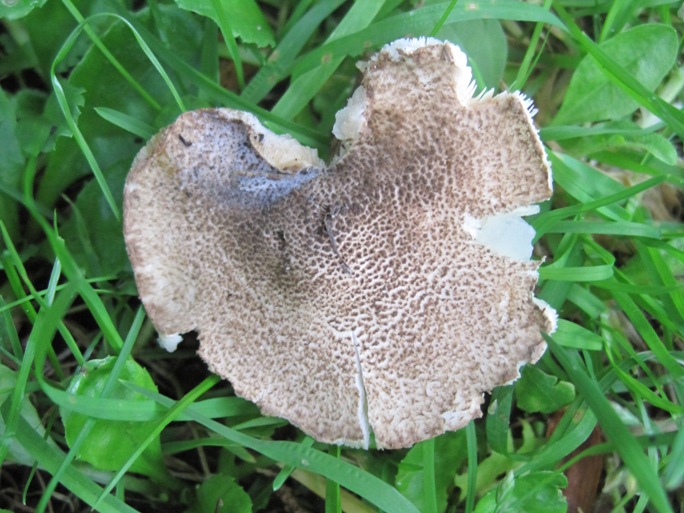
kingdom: Fungi
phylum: Basidiomycota
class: Agaricomycetes
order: Agaricales
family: Agaricaceae
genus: Echinoderma
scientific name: Echinoderma jacobi
